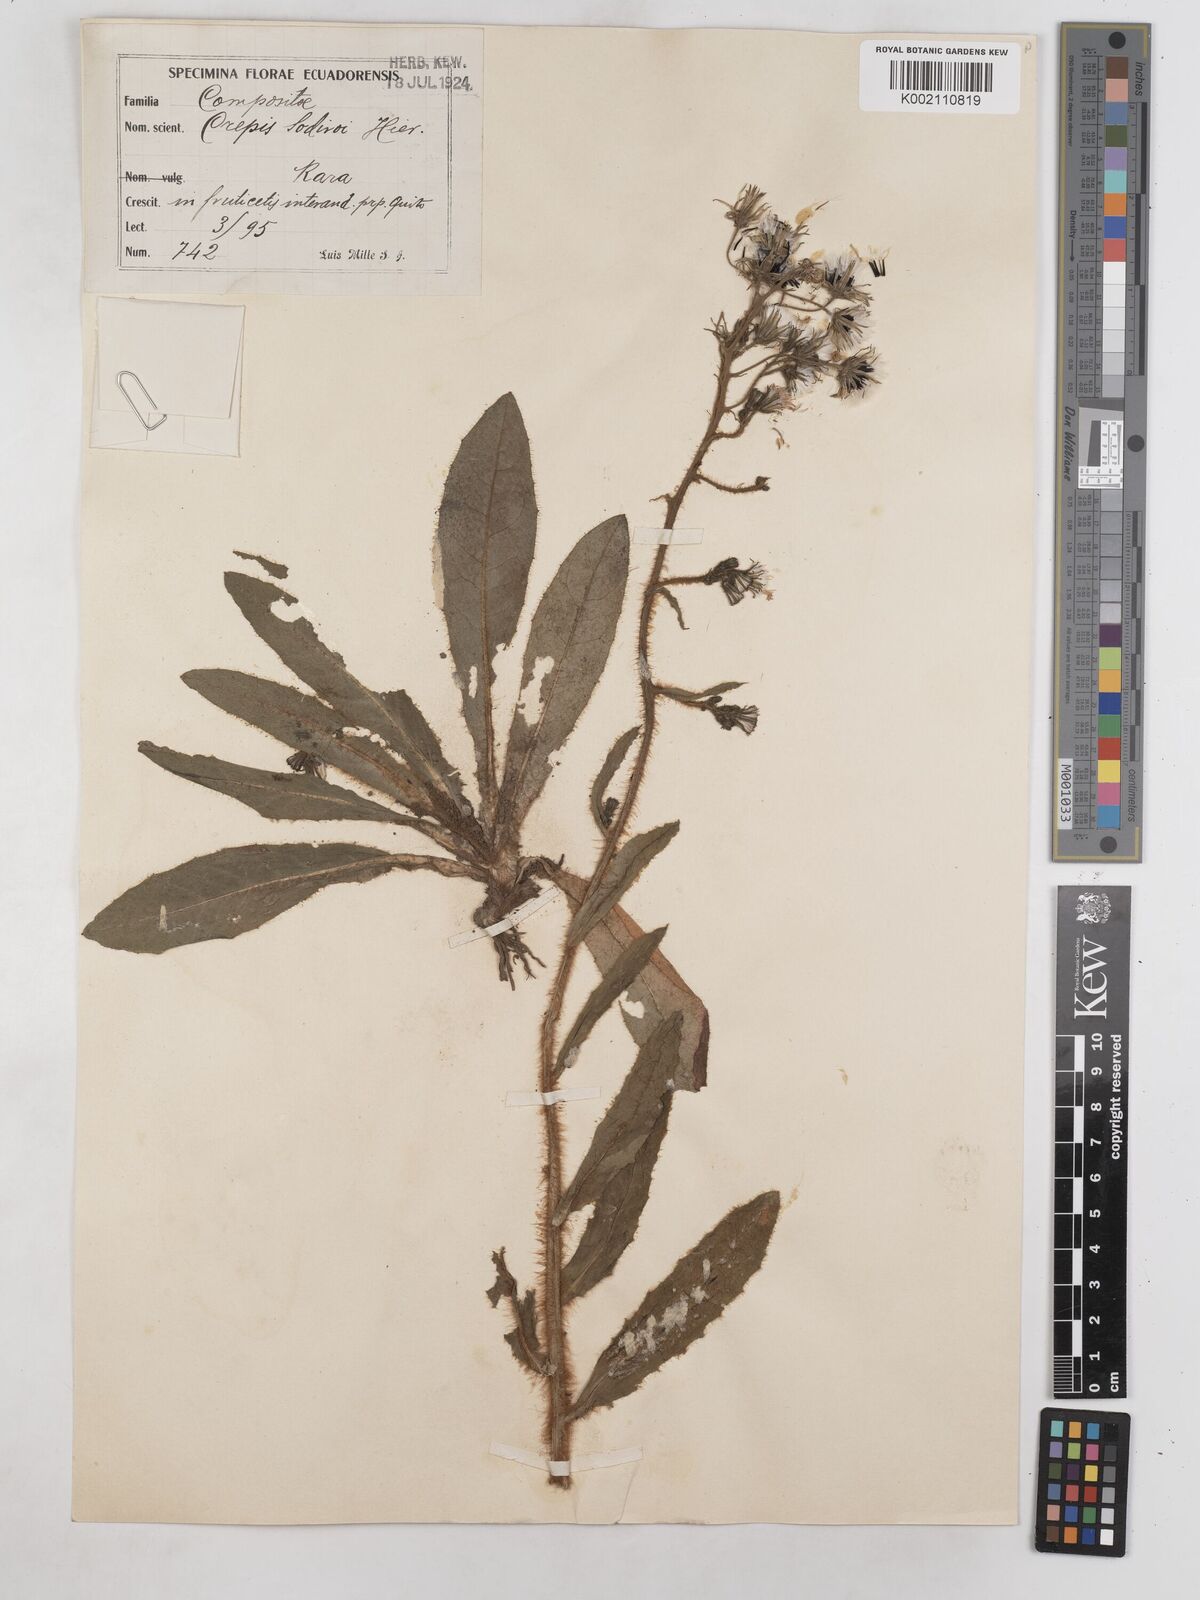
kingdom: Plantae
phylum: Tracheophyta
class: Magnoliopsida
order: Asterales
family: Asteraceae
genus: Crepis
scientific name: Crepis sodiroi
